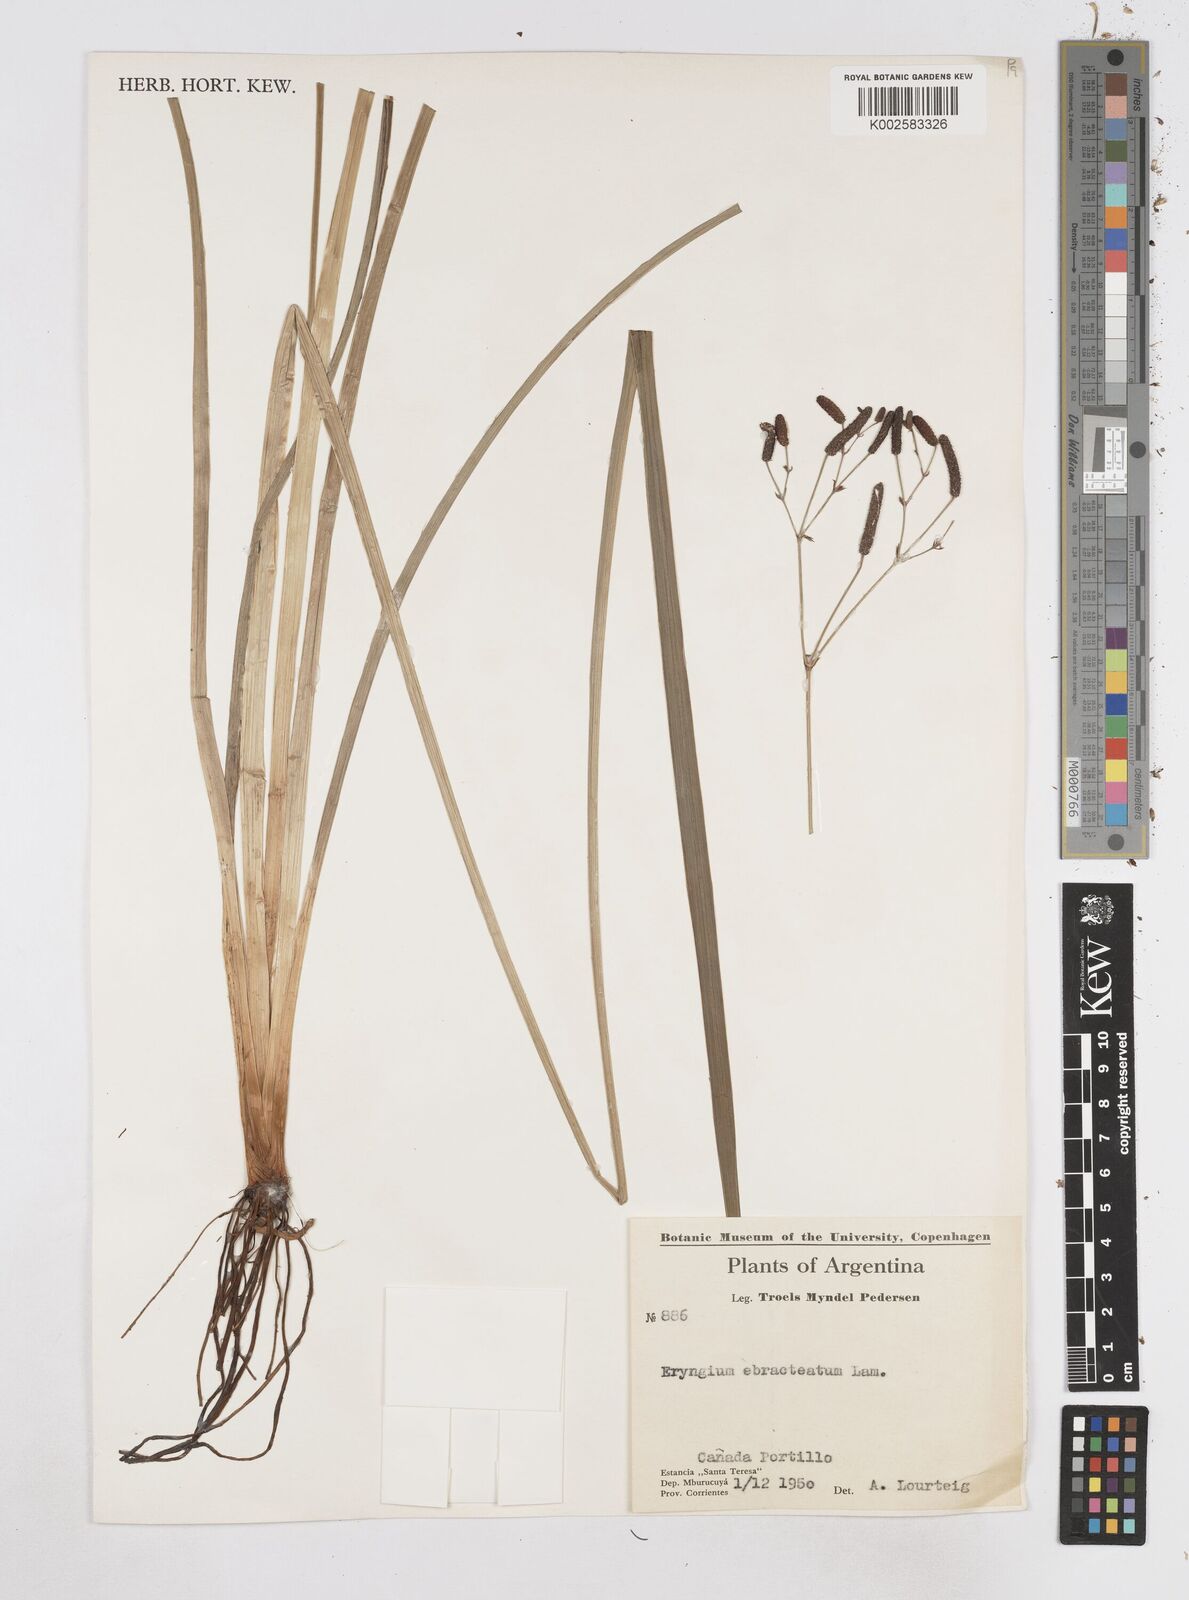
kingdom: Plantae
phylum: Tracheophyta
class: Magnoliopsida
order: Apiales
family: Apiaceae
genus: Eryngium
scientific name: Eryngium ebracteatum
